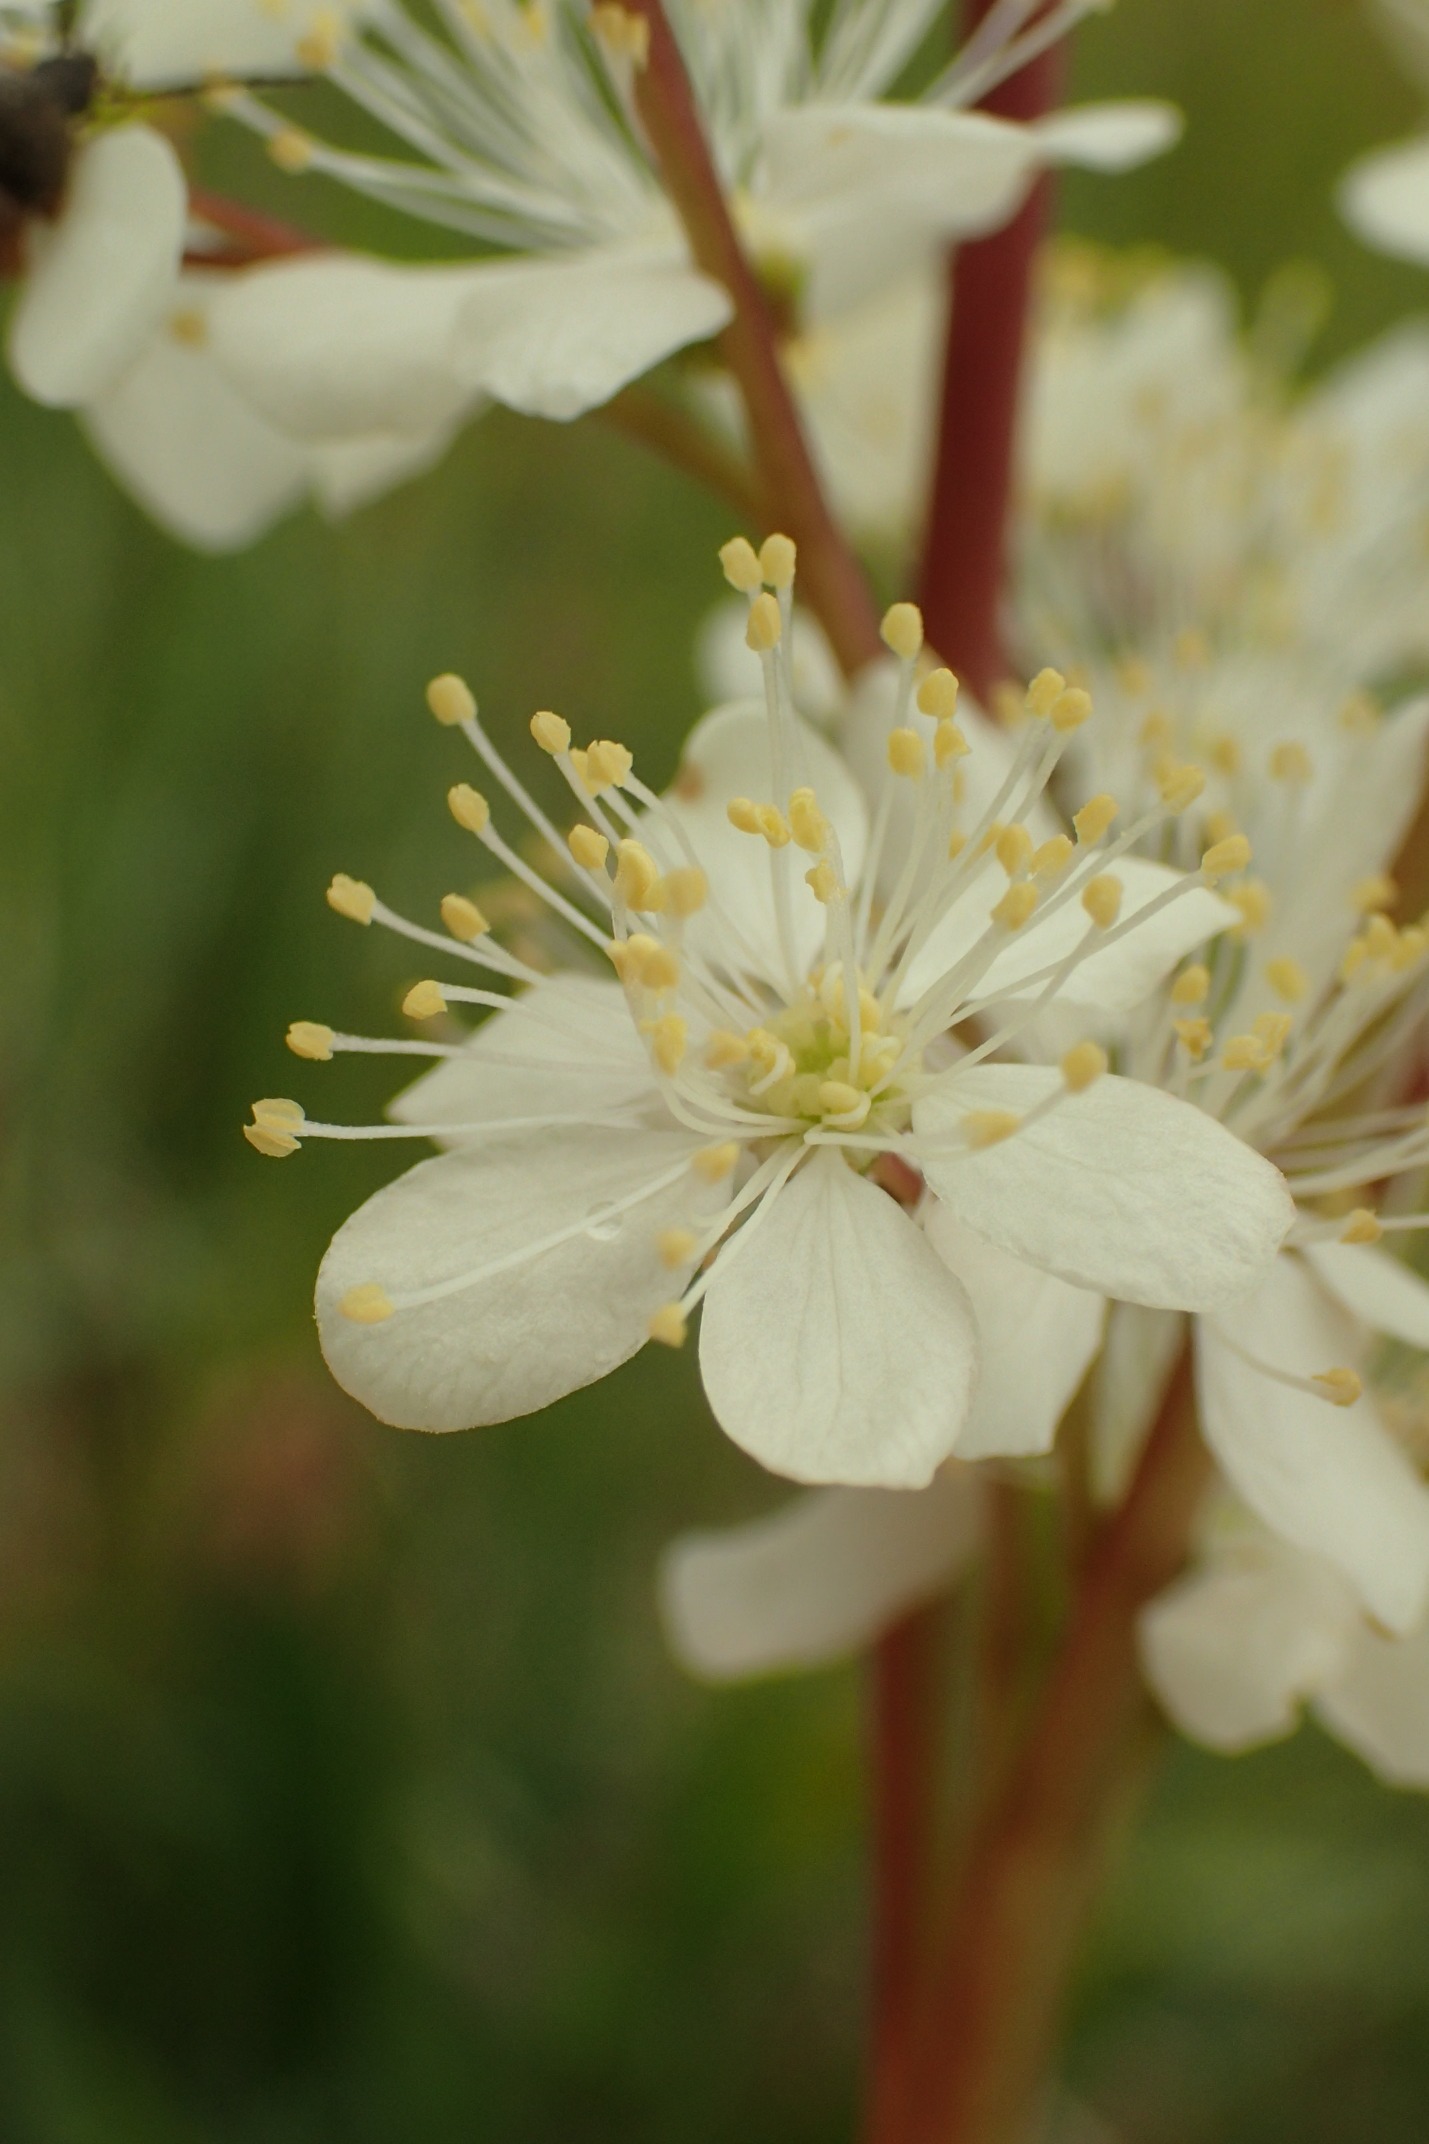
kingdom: Plantae
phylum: Tracheophyta
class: Magnoliopsida
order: Rosales
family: Rosaceae
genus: Filipendula
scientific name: Filipendula vulgaris
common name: Knoldet mjødurt
